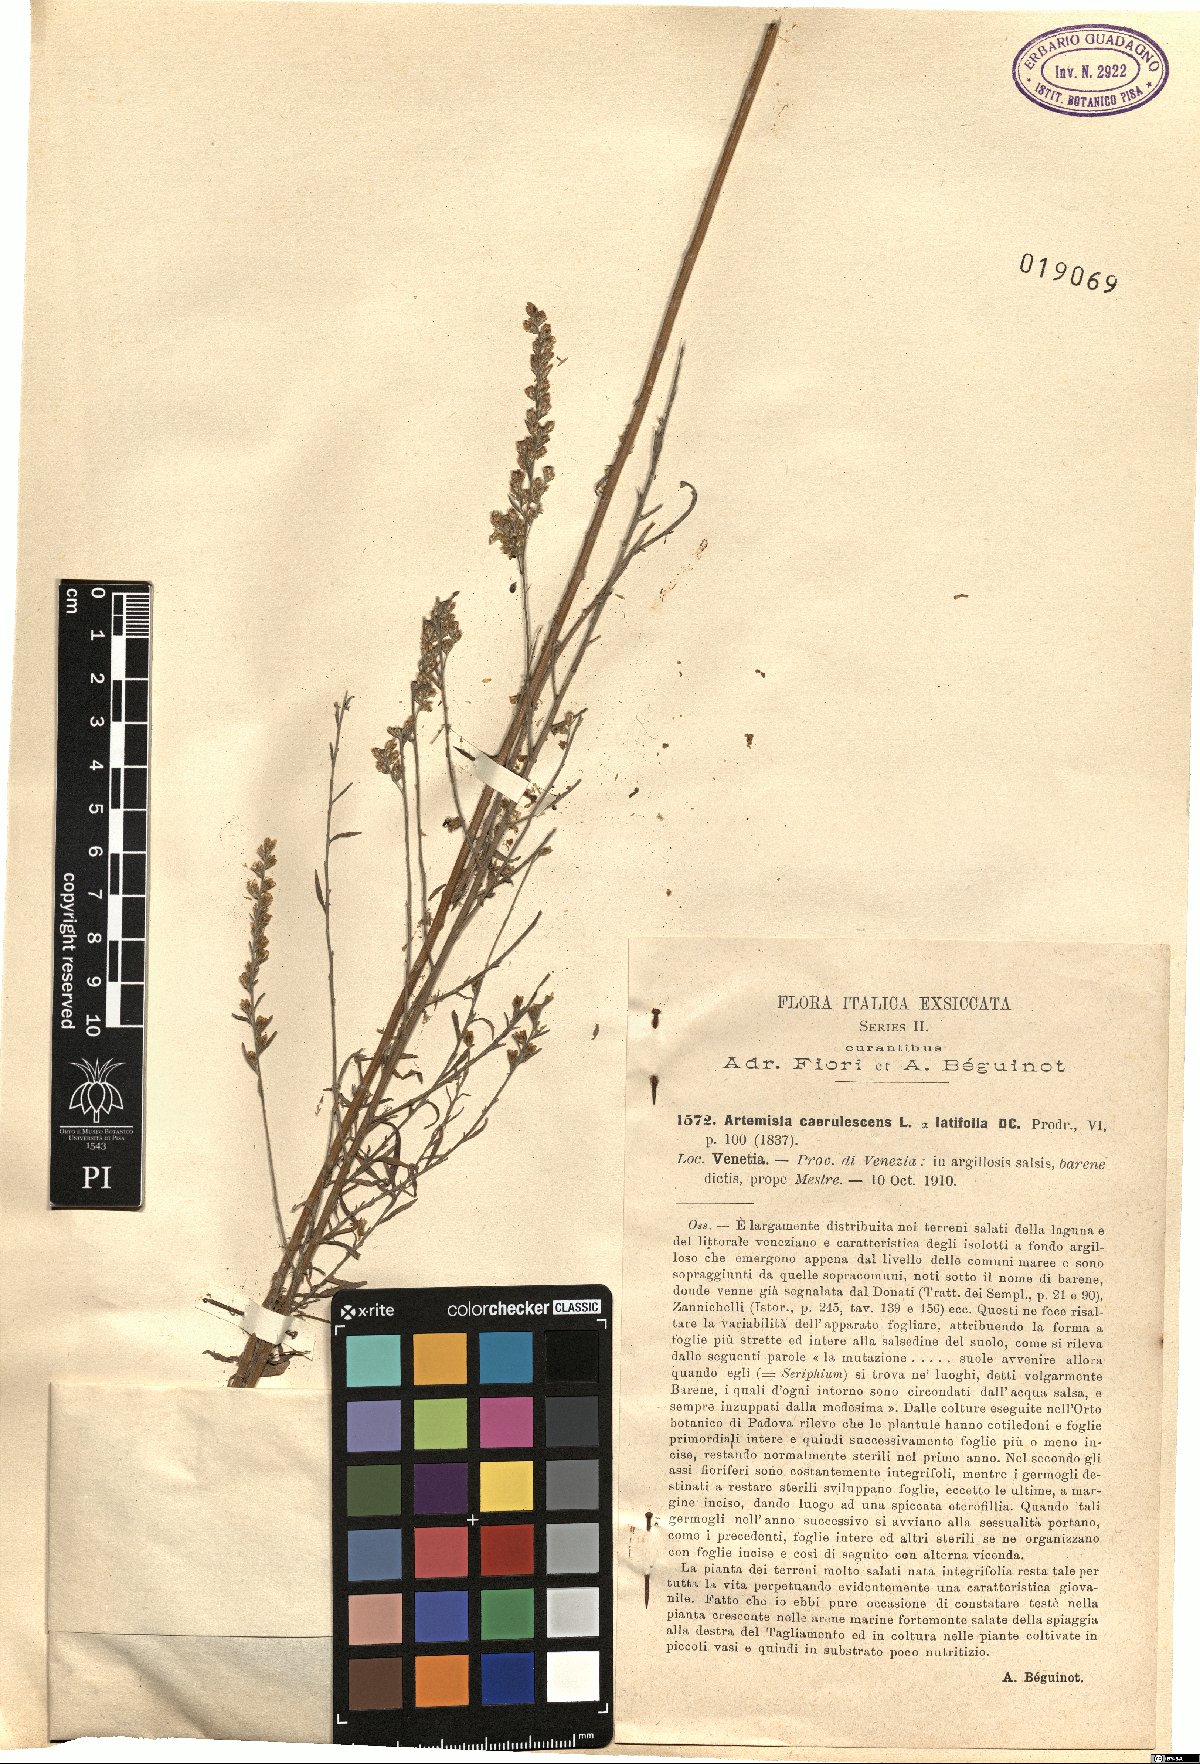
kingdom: Plantae
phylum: Tracheophyta
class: Magnoliopsida
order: Asterales
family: Asteraceae
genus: Artemisia
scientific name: Artemisia caerulescens
